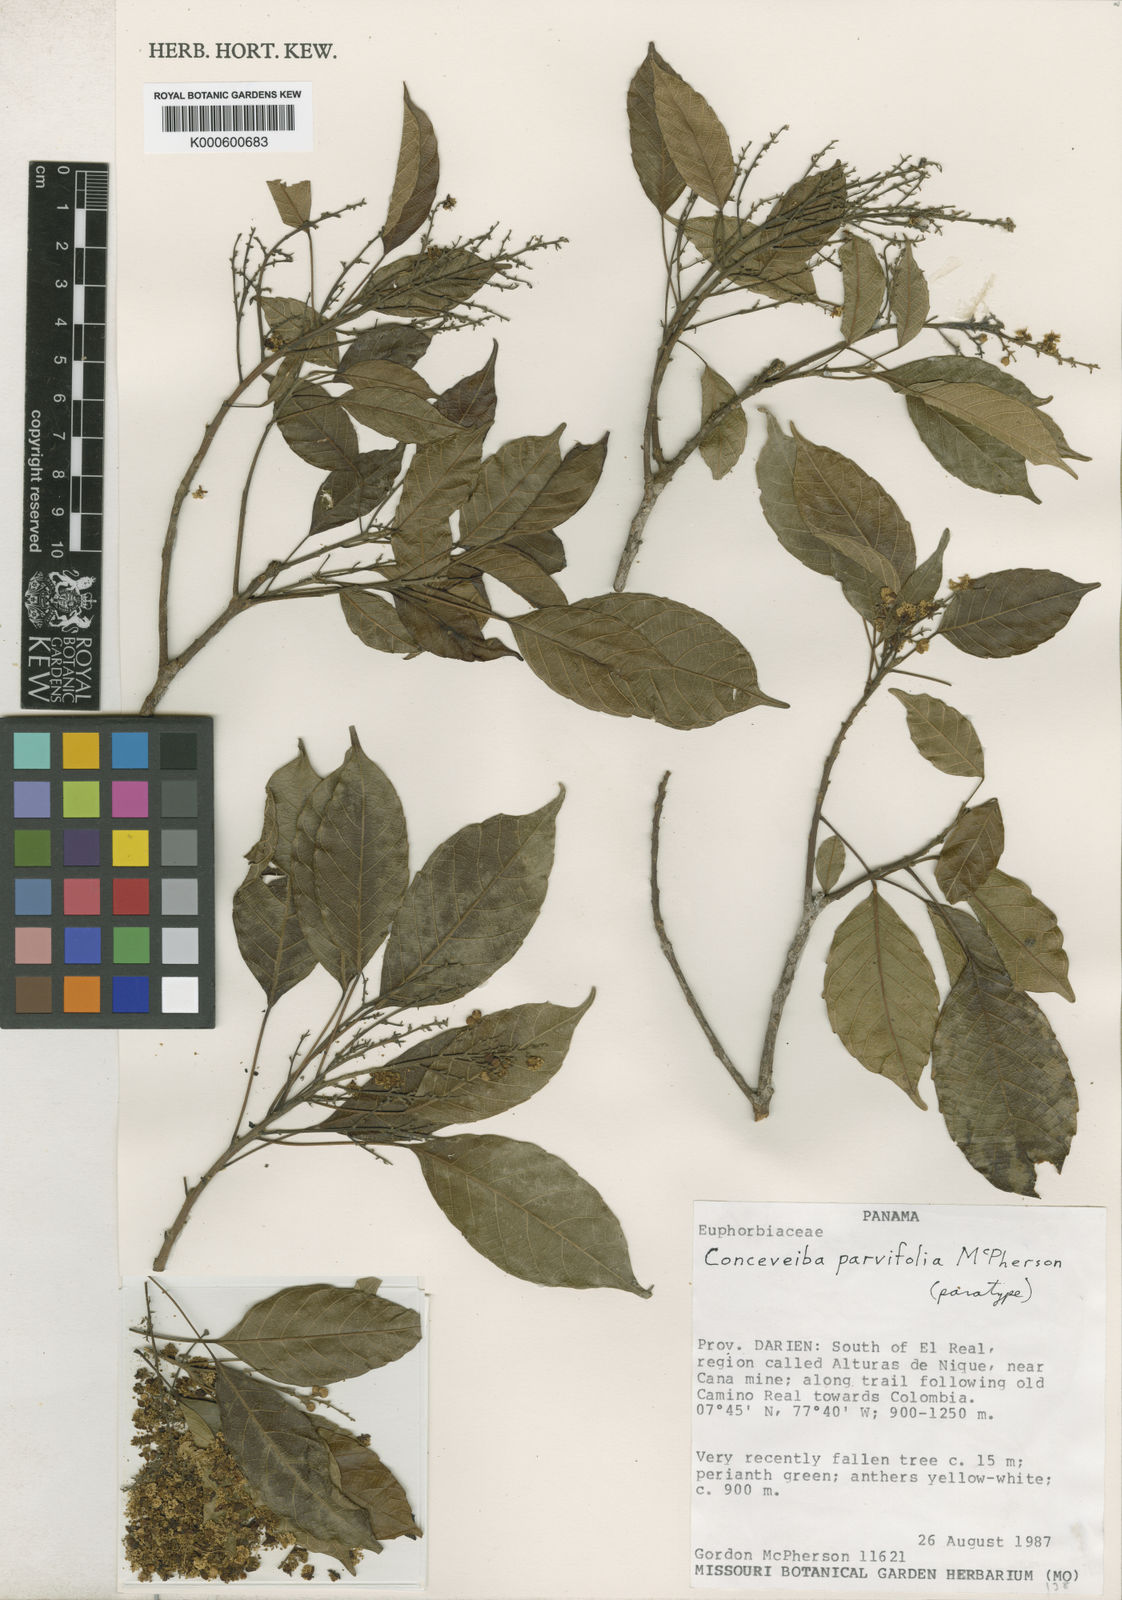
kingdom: Plantae
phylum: Tracheophyta
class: Magnoliopsida
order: Malpighiales
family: Euphorbiaceae
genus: Conceveiba
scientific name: Conceveiba parvifolia
